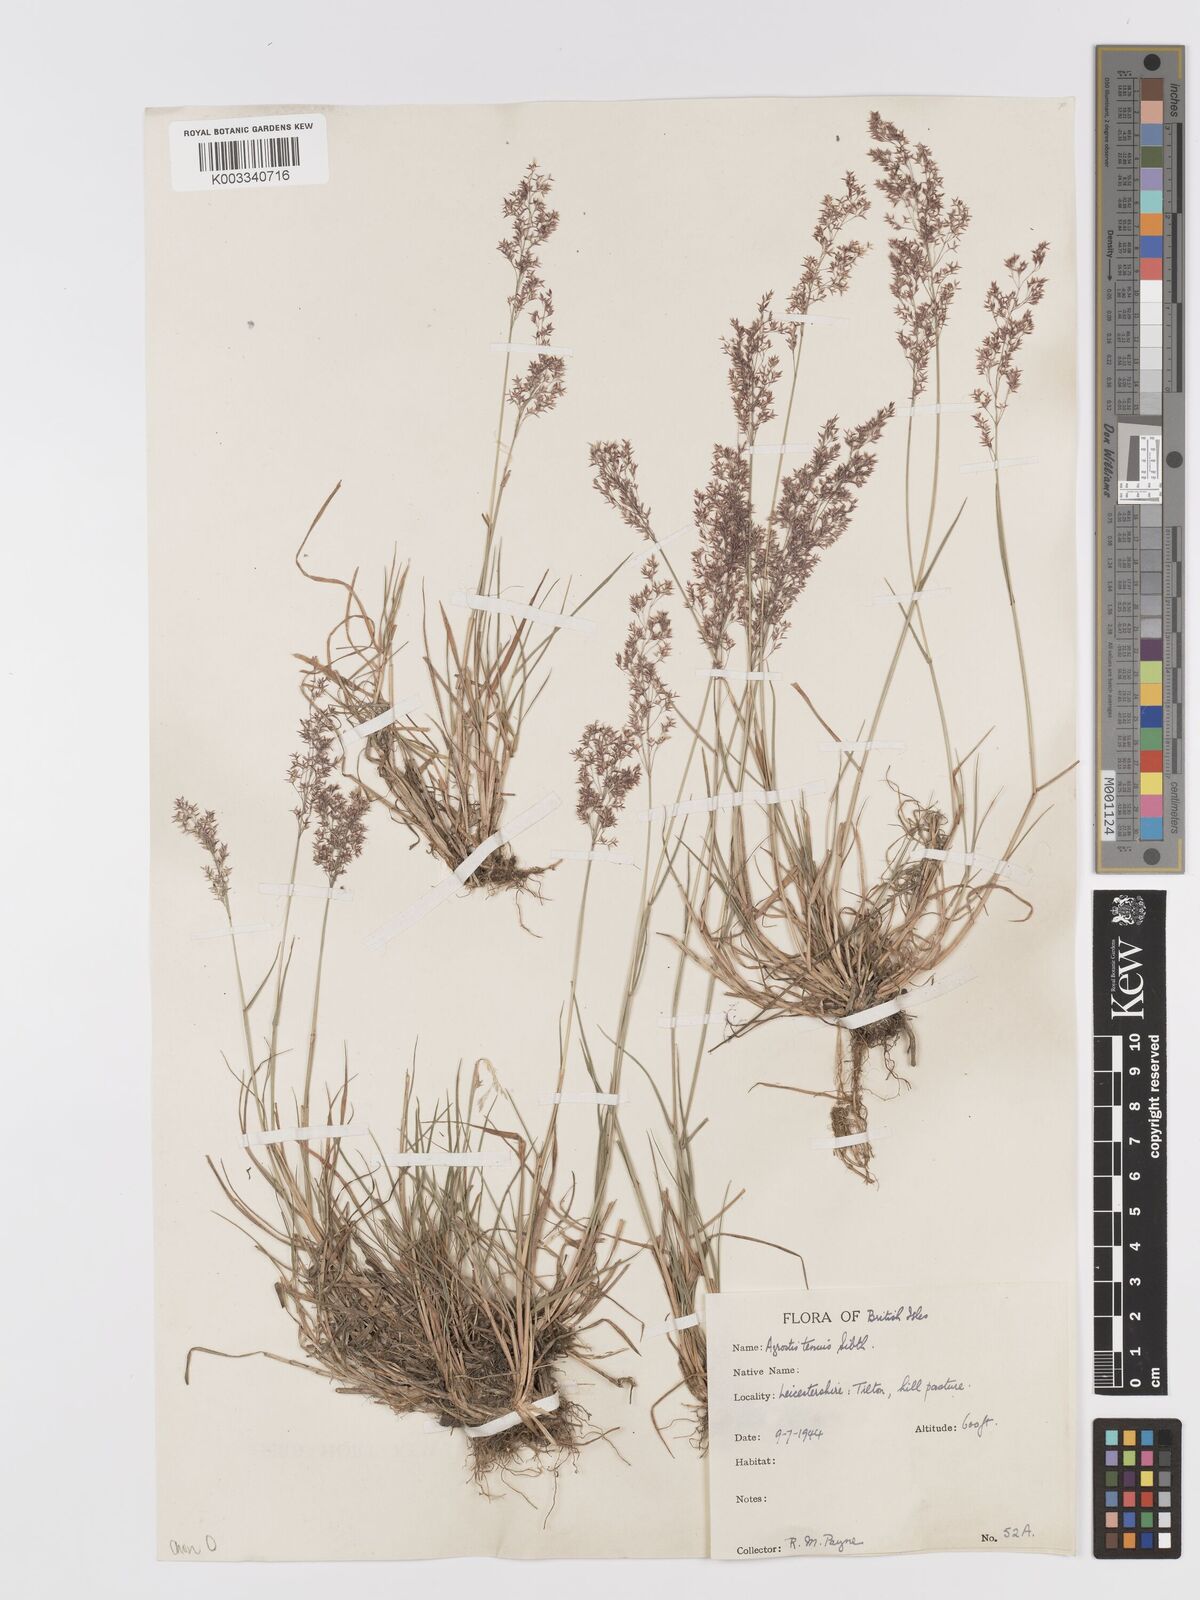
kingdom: Plantae
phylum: Tracheophyta
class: Liliopsida
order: Poales
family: Poaceae
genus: Agrostis
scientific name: Agrostis capillaris
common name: Colonial bentgrass
